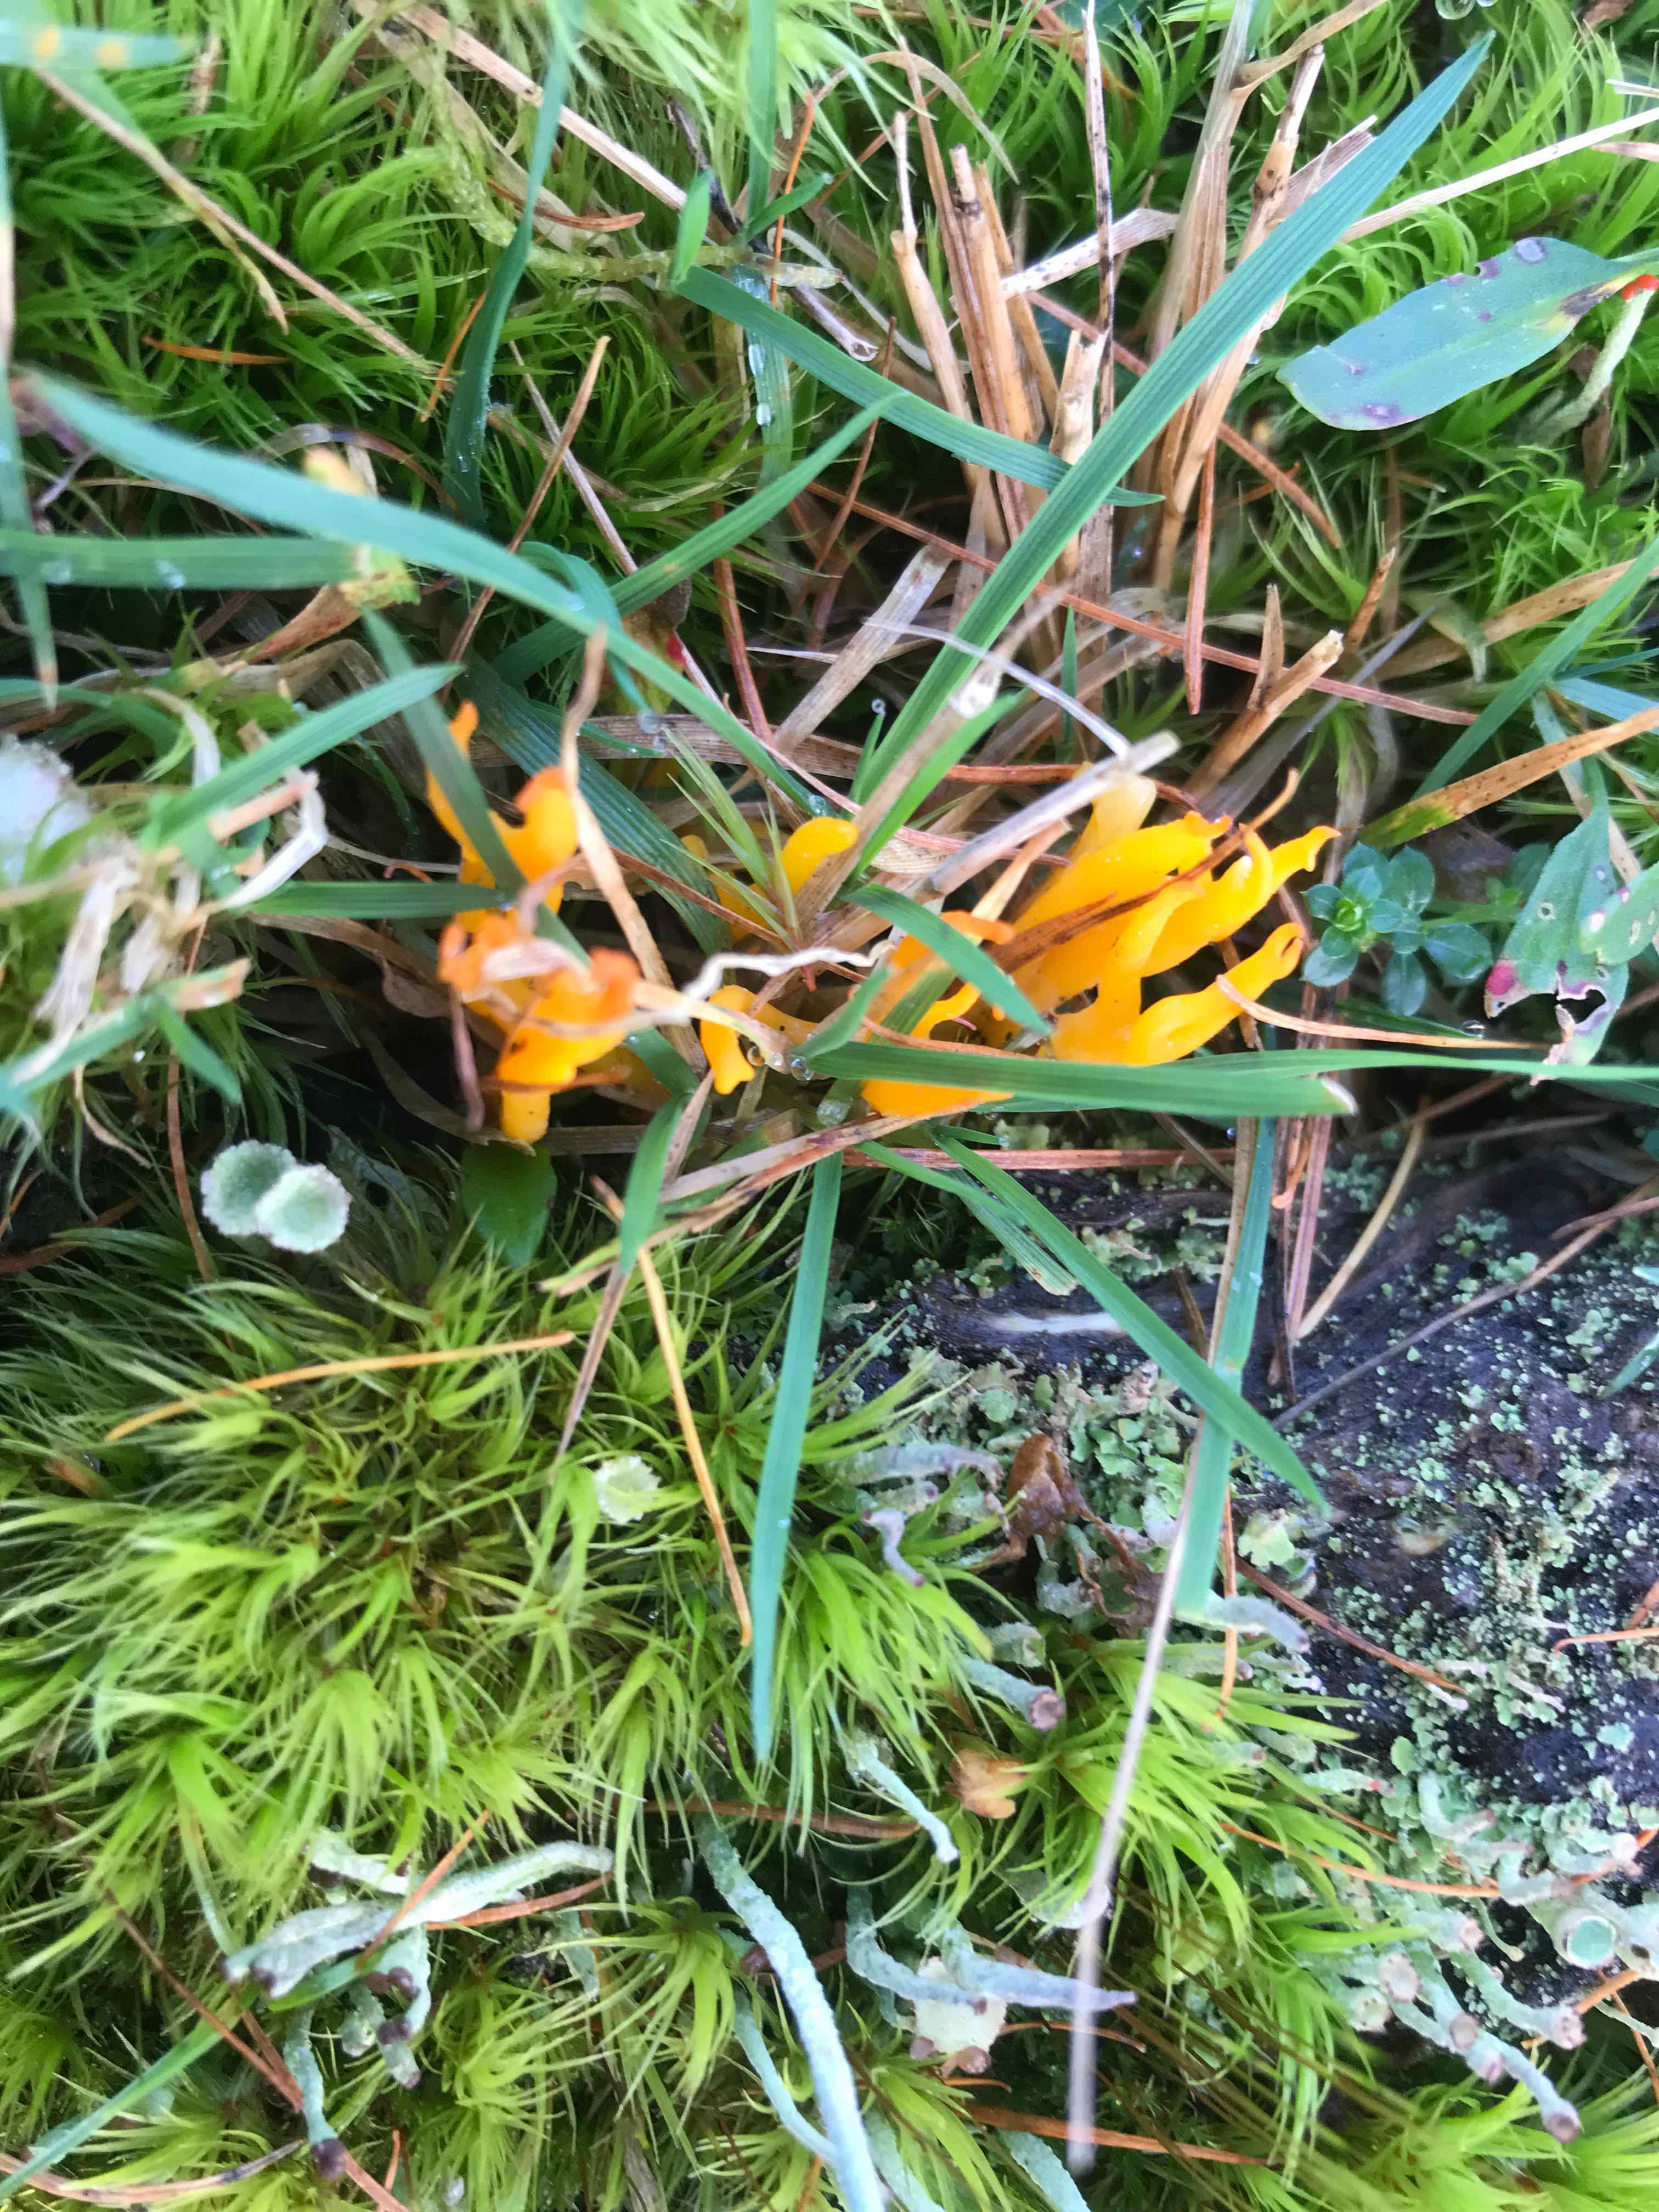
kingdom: Fungi
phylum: Basidiomycota
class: Dacrymycetes
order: Dacrymycetales
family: Dacrymycetaceae
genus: Calocera
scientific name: Calocera viscosa
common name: almindelig guldgaffel
